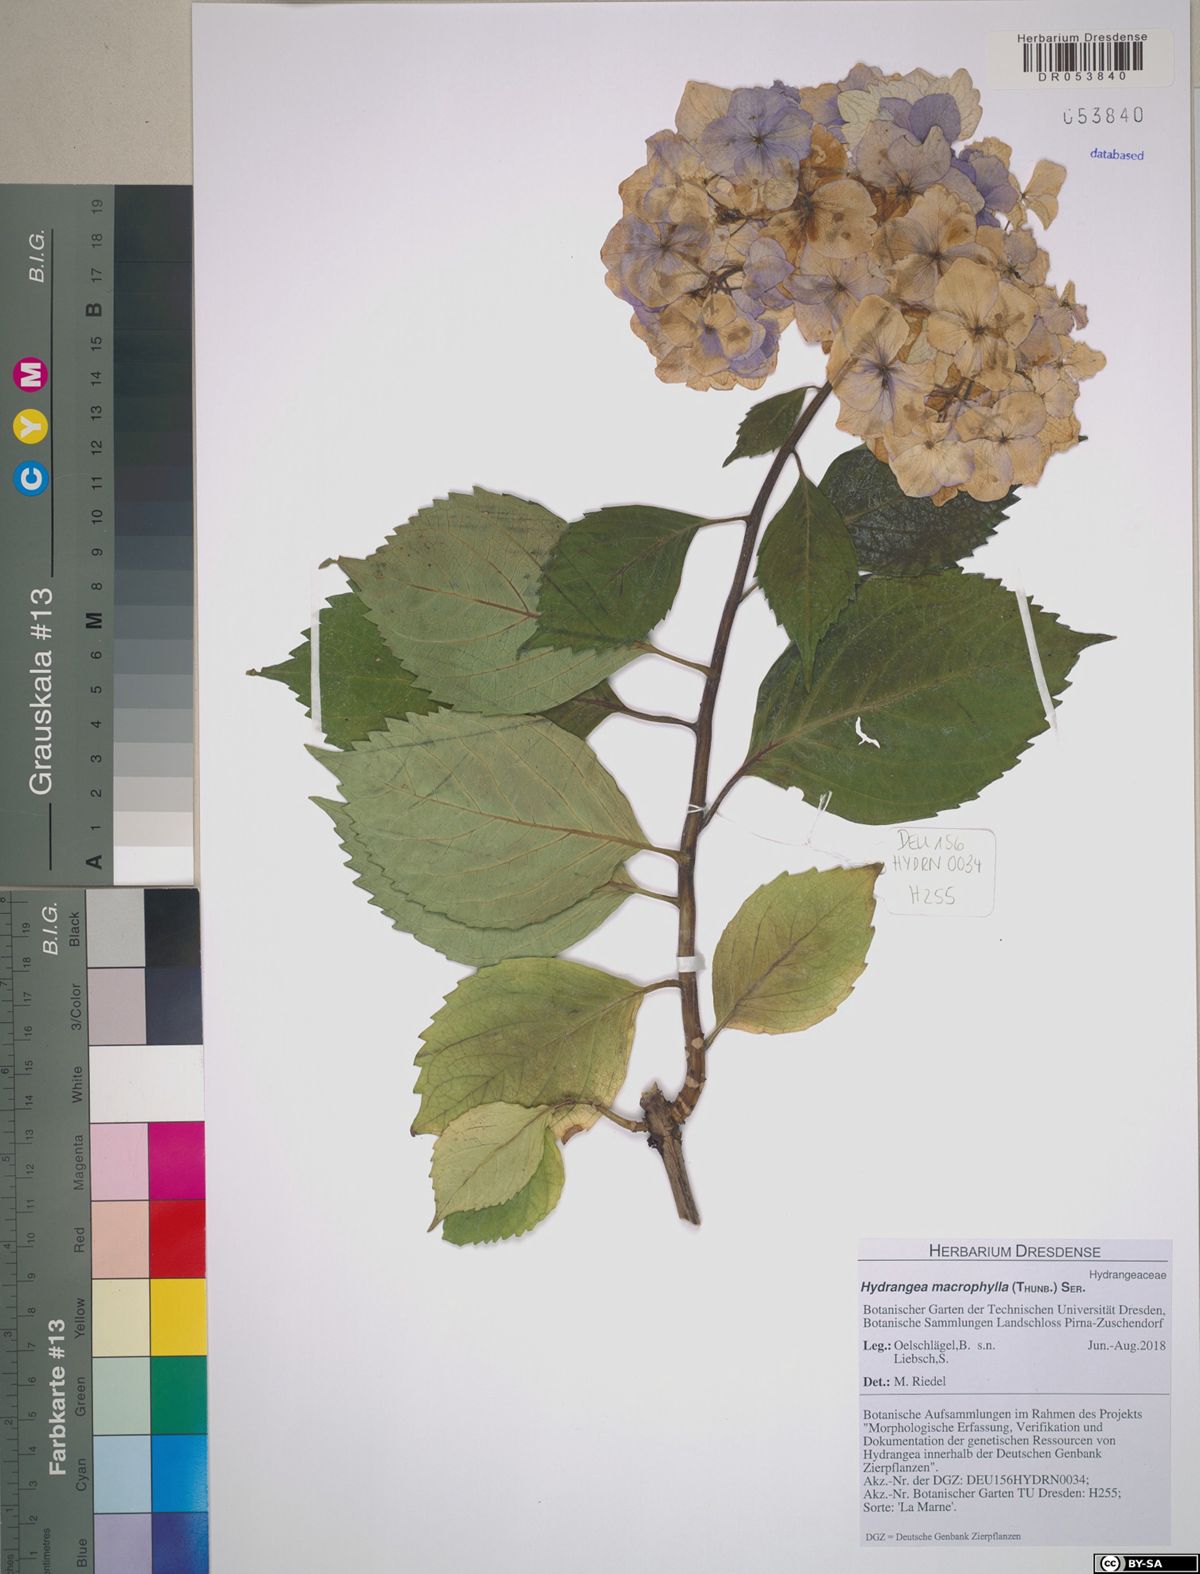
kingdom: Plantae
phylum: Tracheophyta
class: Magnoliopsida
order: Cornales
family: Hydrangeaceae
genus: Hydrangea
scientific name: Hydrangea macrophylla
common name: Hydrangea
